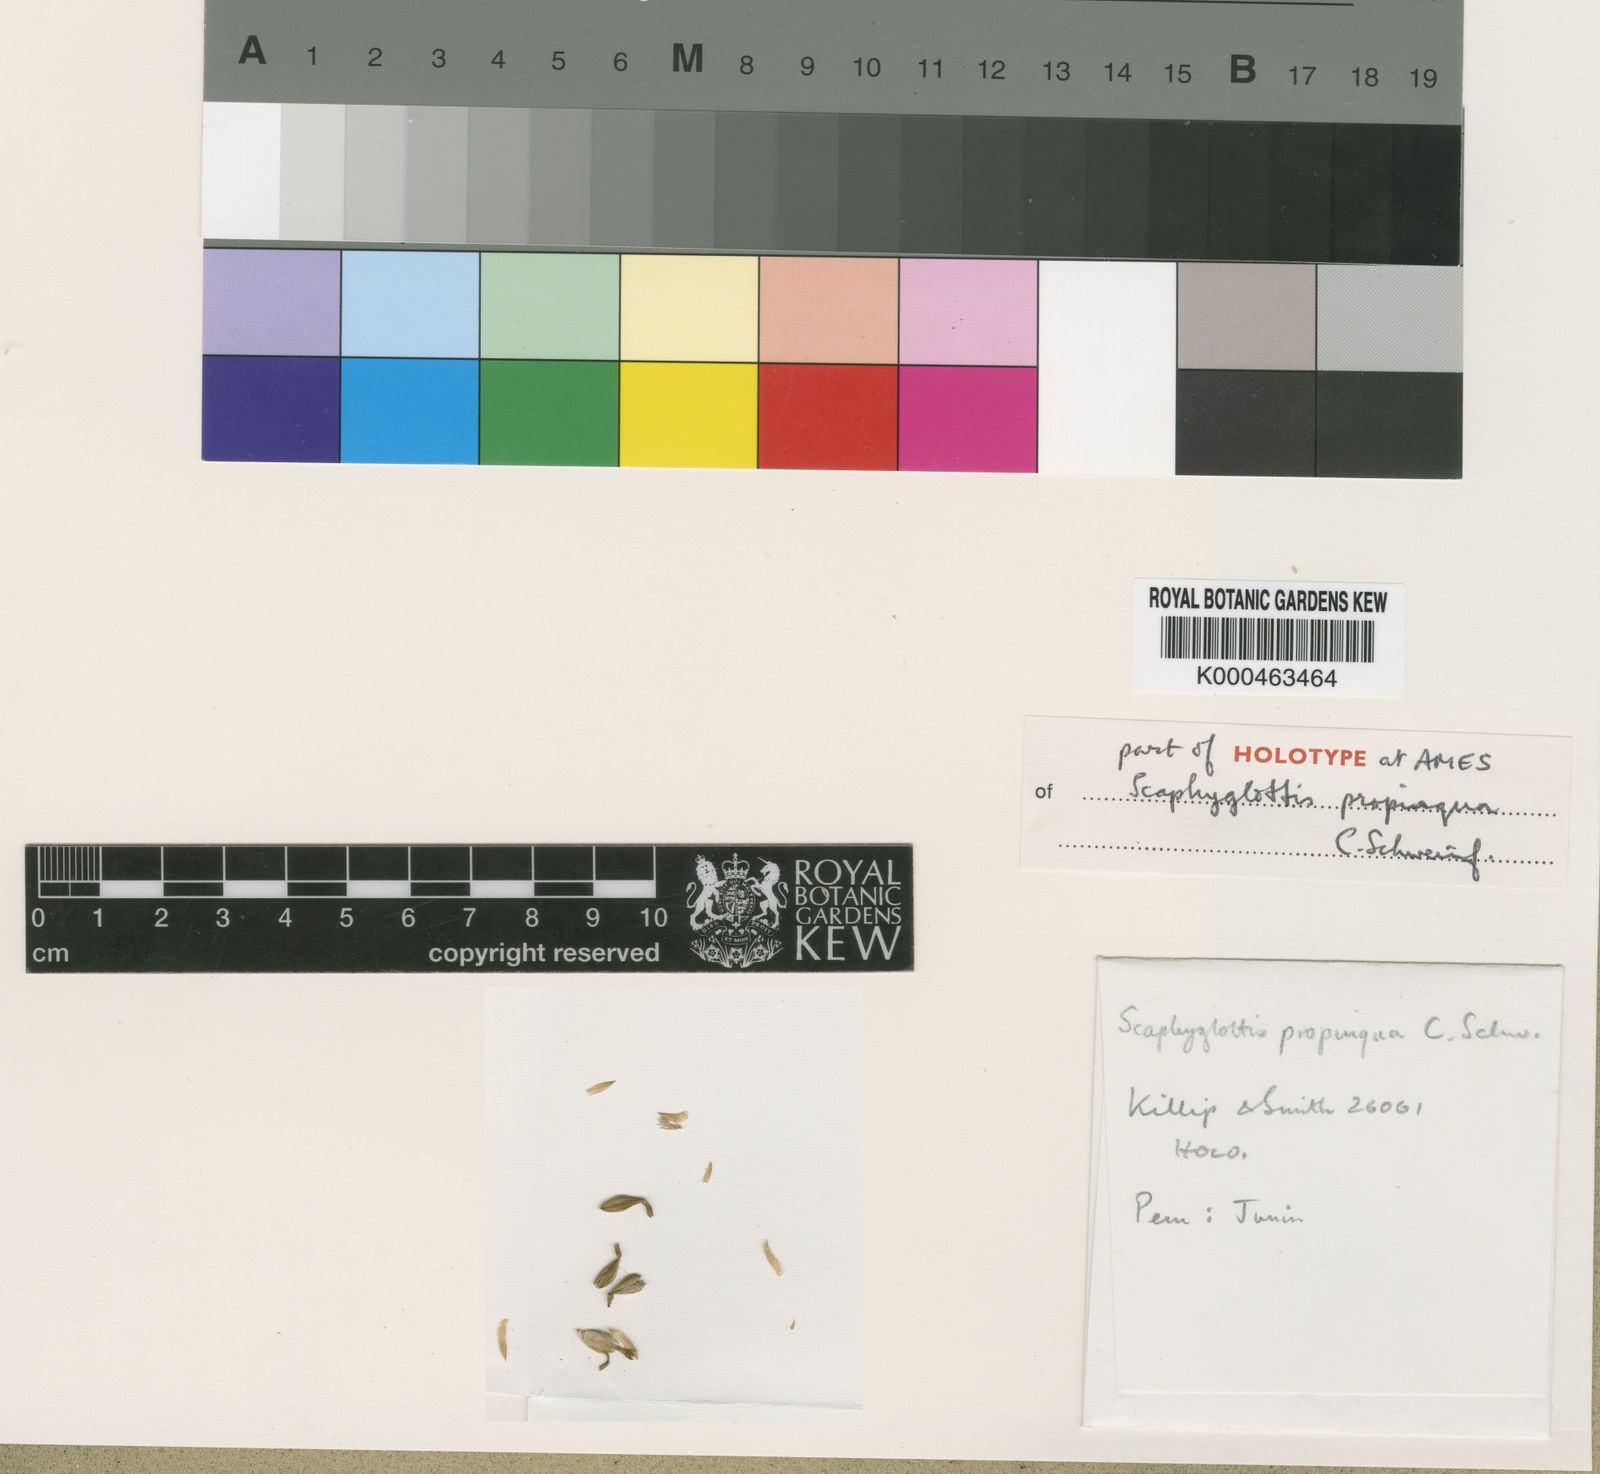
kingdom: Plantae
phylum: Tracheophyta
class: Liliopsida
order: Asparagales
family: Orchidaceae
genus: Scaphyglottis
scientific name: Scaphyglottis propinqua
